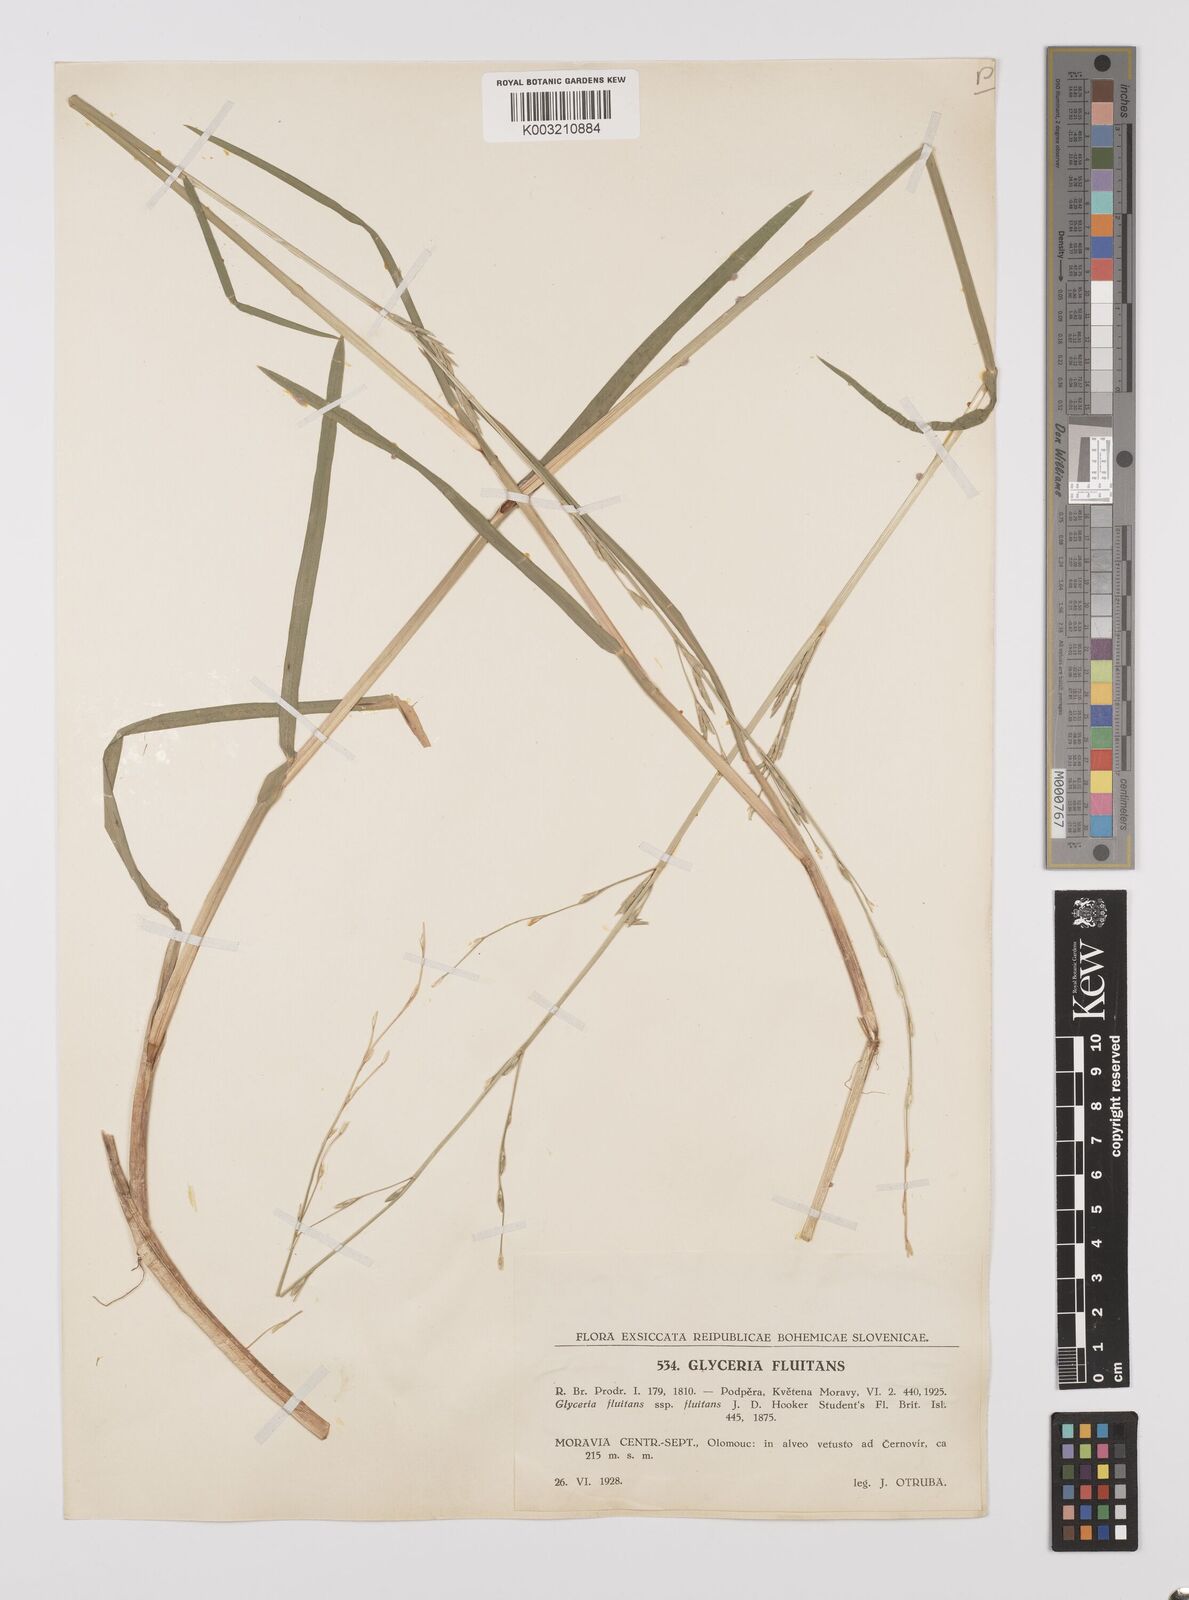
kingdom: Plantae
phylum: Tracheophyta
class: Liliopsida
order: Poales
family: Poaceae
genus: Glyceria
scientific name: Glyceria fluitans
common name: Floating sweet-grass
